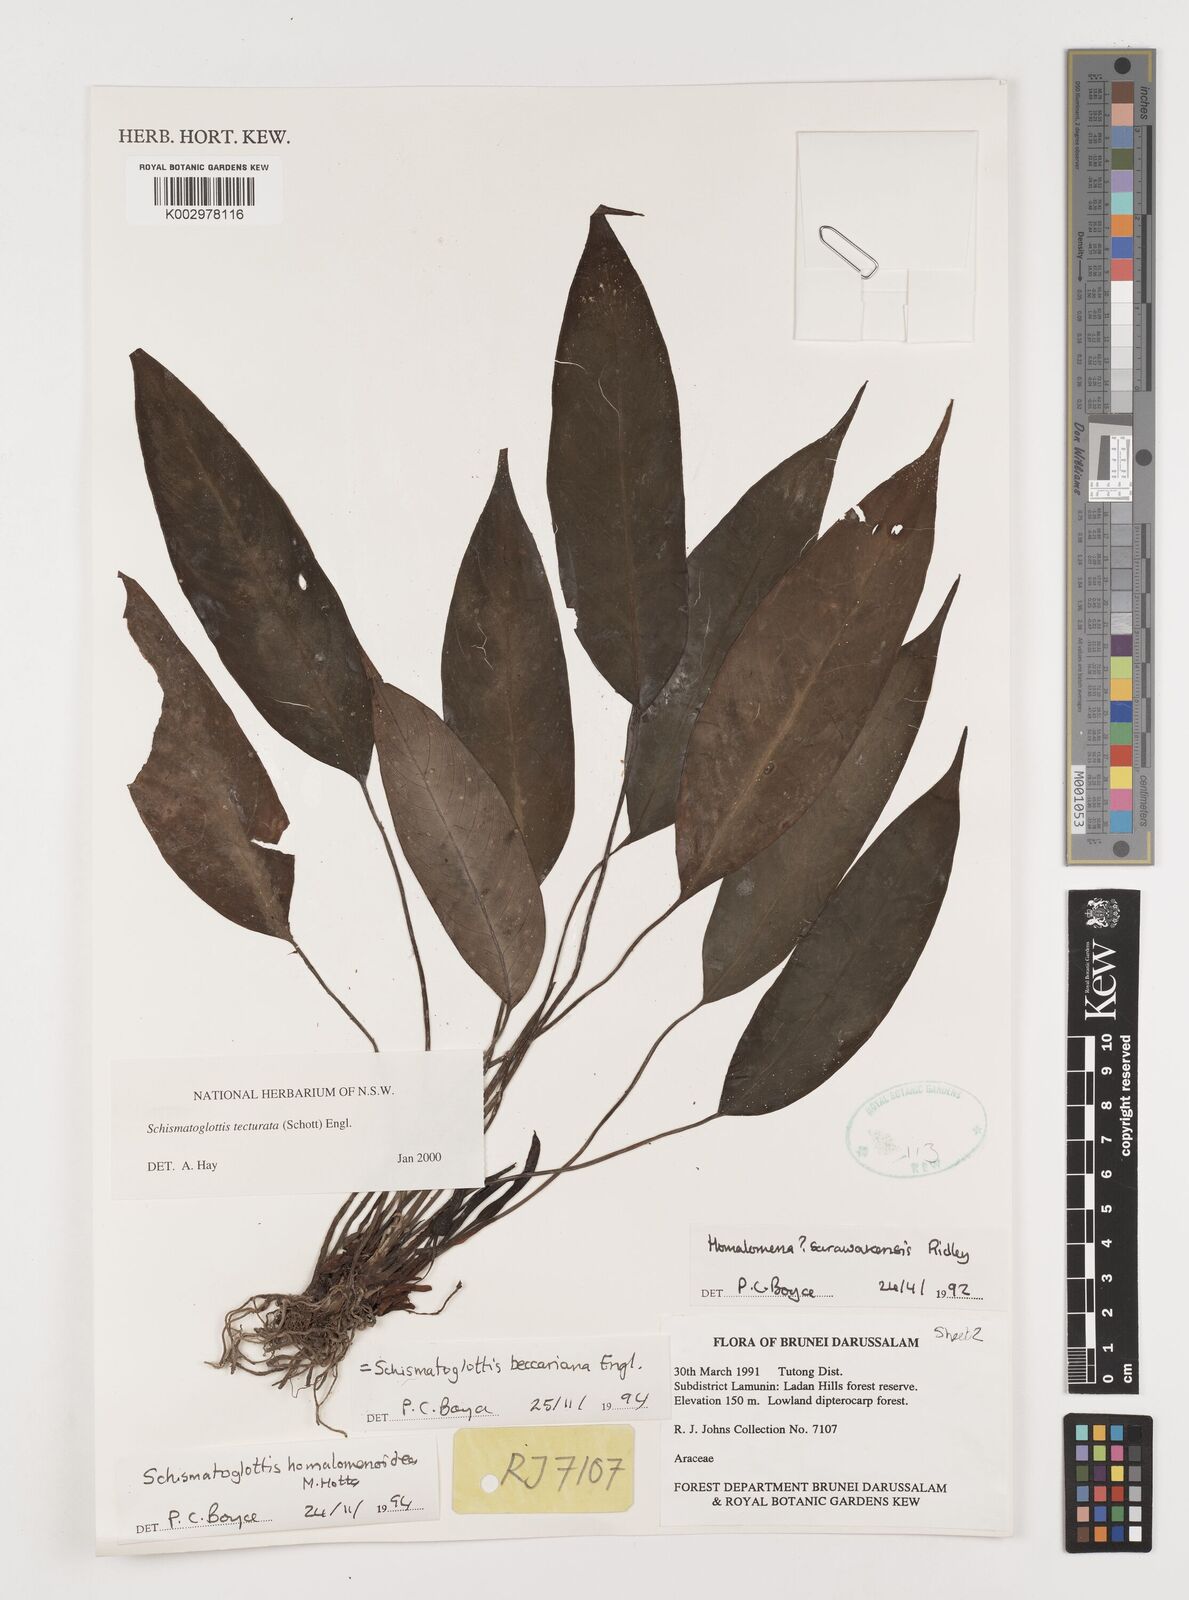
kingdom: Plantae
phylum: Tracheophyta
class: Liliopsida
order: Zingiberales
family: Costaceae
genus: Colobogynium
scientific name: Colobogynium variegatum
